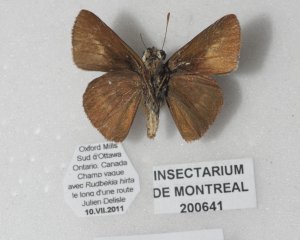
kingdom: Animalia
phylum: Arthropoda
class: Insecta
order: Lepidoptera
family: Hesperiidae
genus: Euphyes
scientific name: Euphyes vestris
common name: Dun Skipper
